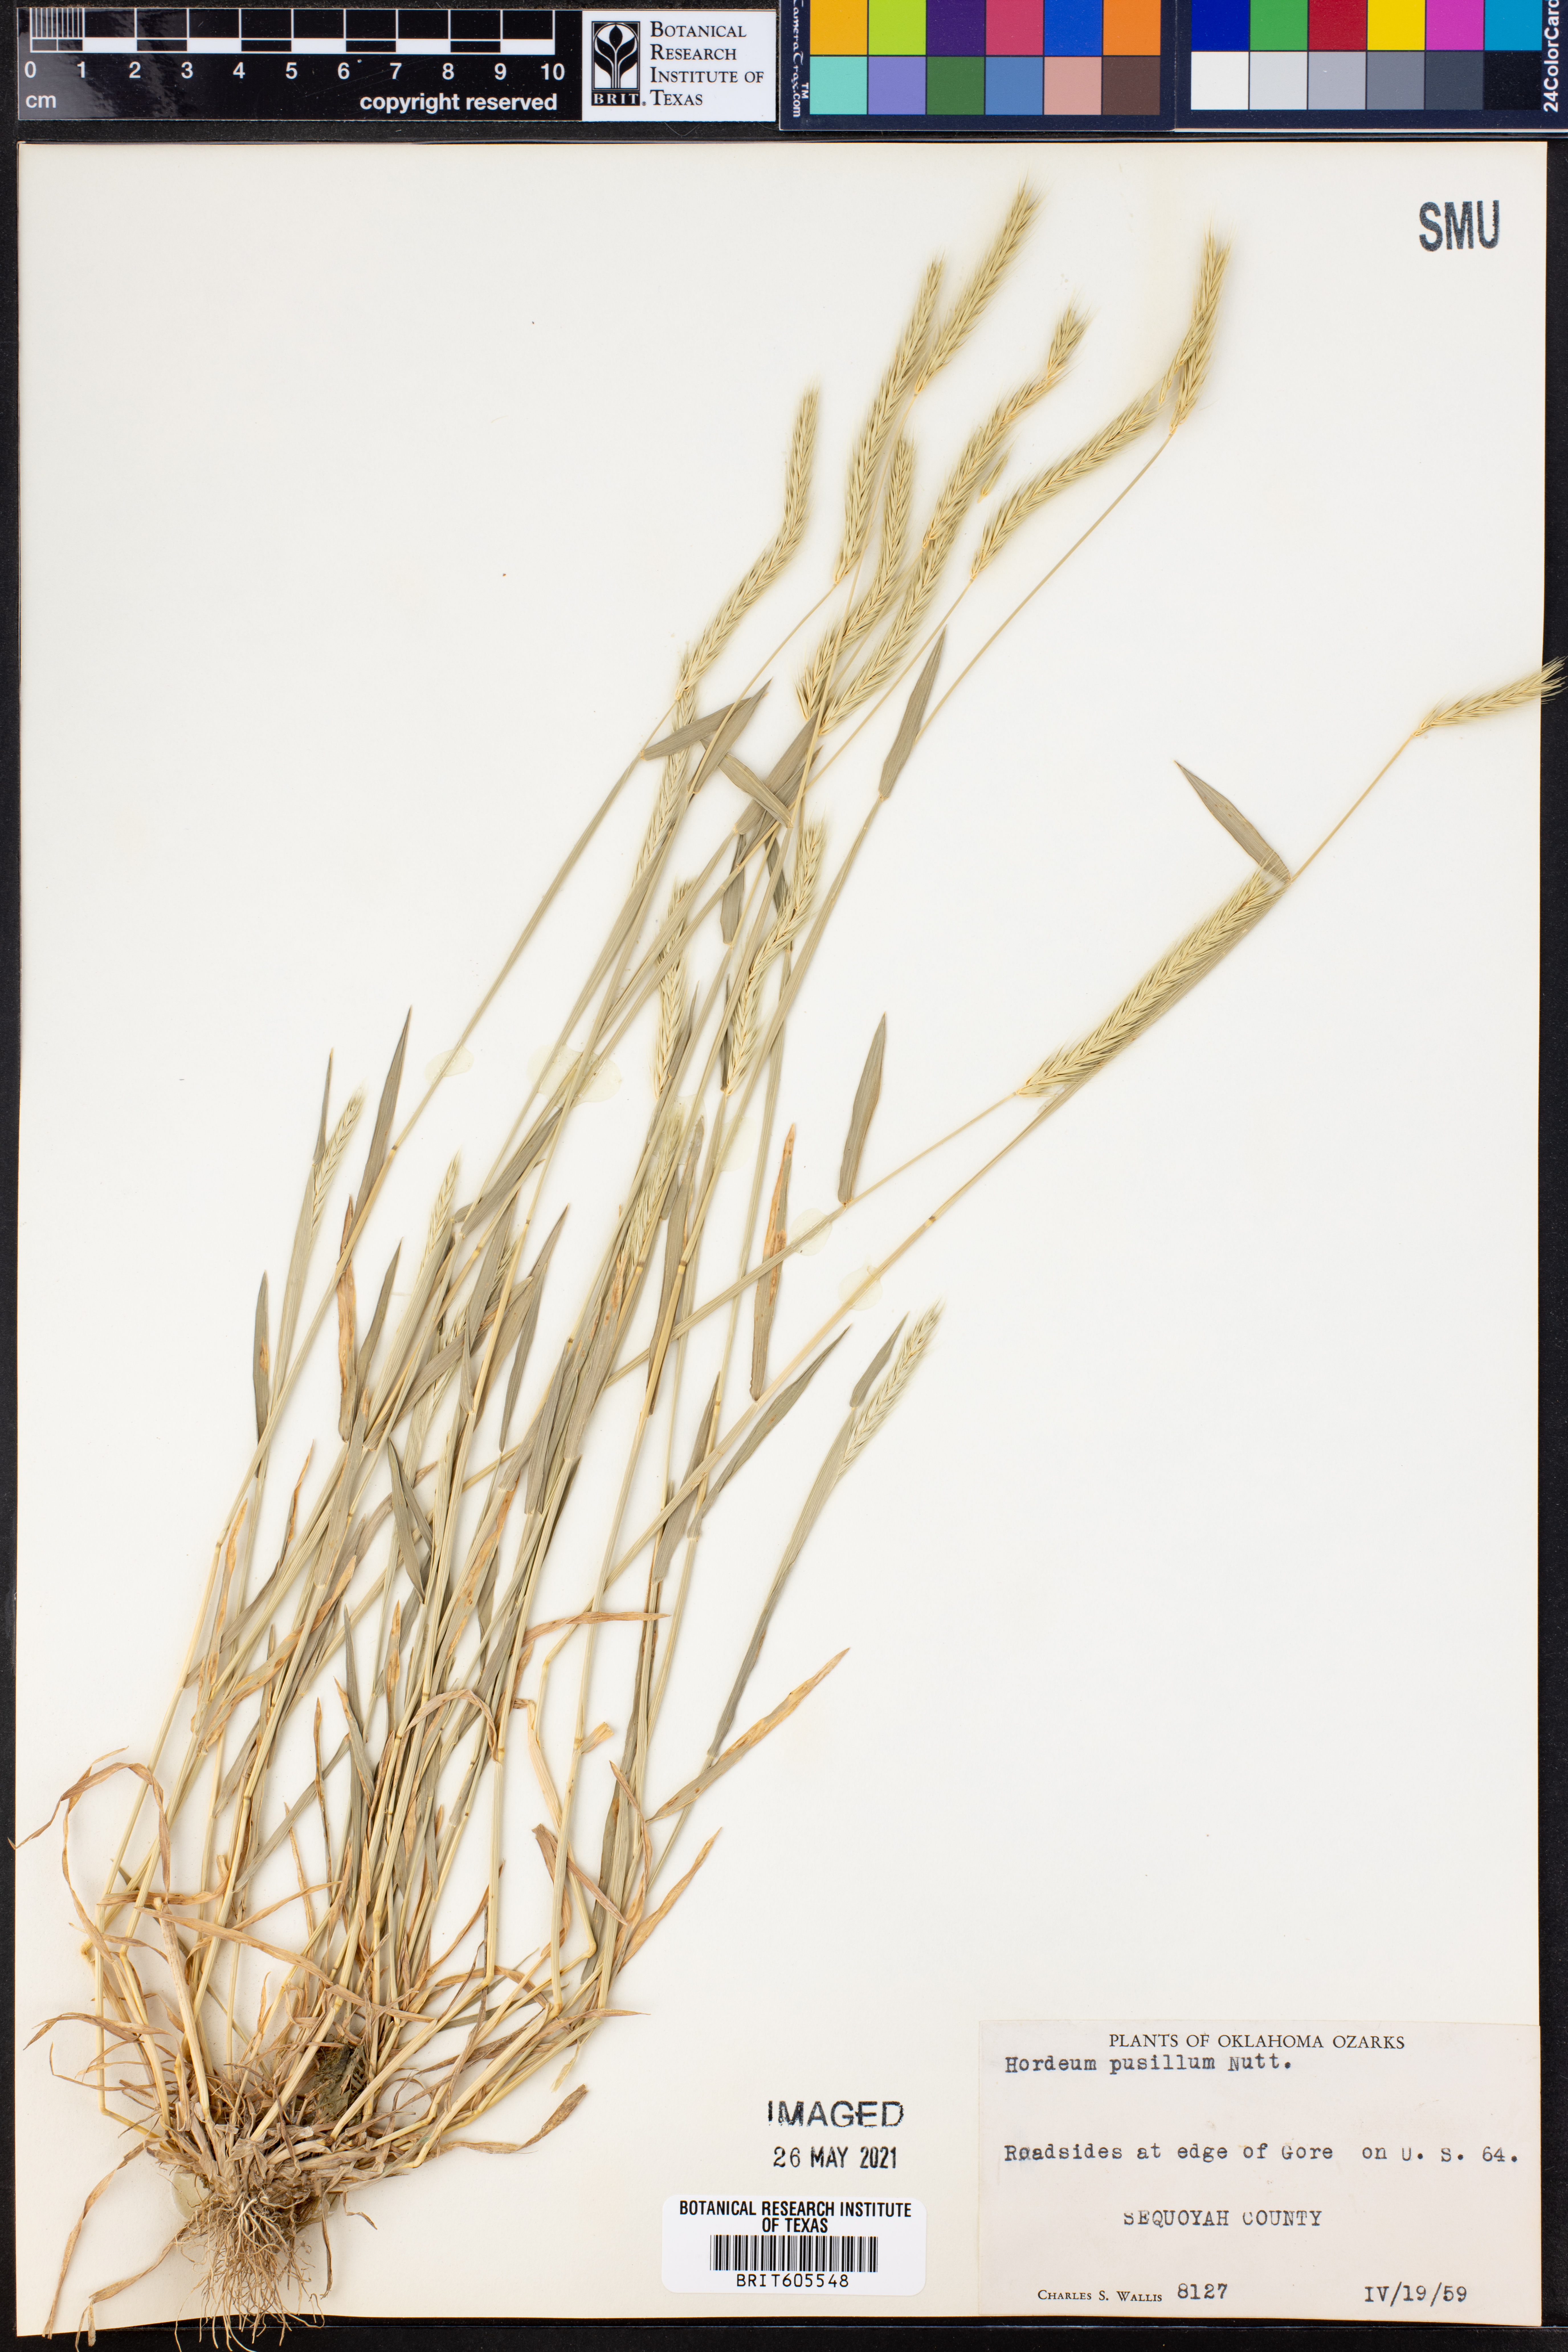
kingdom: Plantae
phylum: Tracheophyta
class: Liliopsida
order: Poales
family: Poaceae
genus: Hordeum
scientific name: Hordeum pusillum
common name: Little barley
